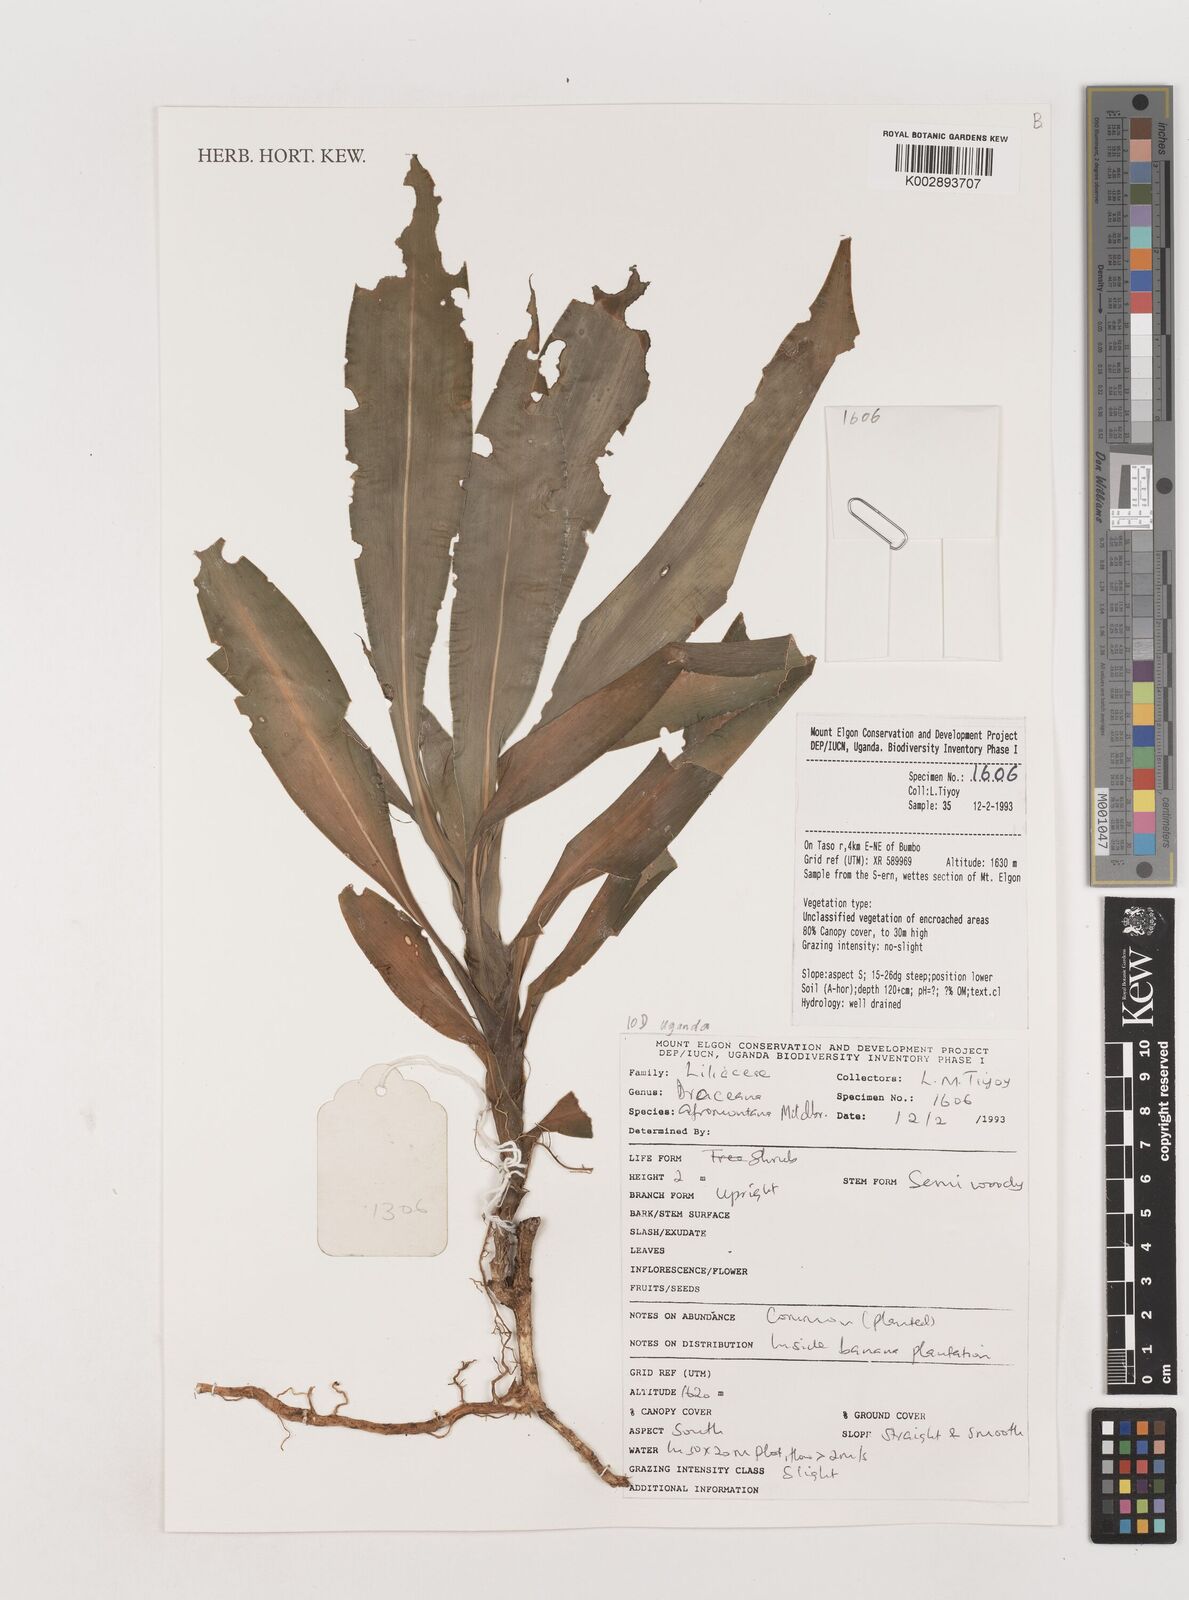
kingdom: Plantae
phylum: Tracheophyta
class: Liliopsida
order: Asparagales
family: Asparagaceae
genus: Dracaena
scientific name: Dracaena afromontana
